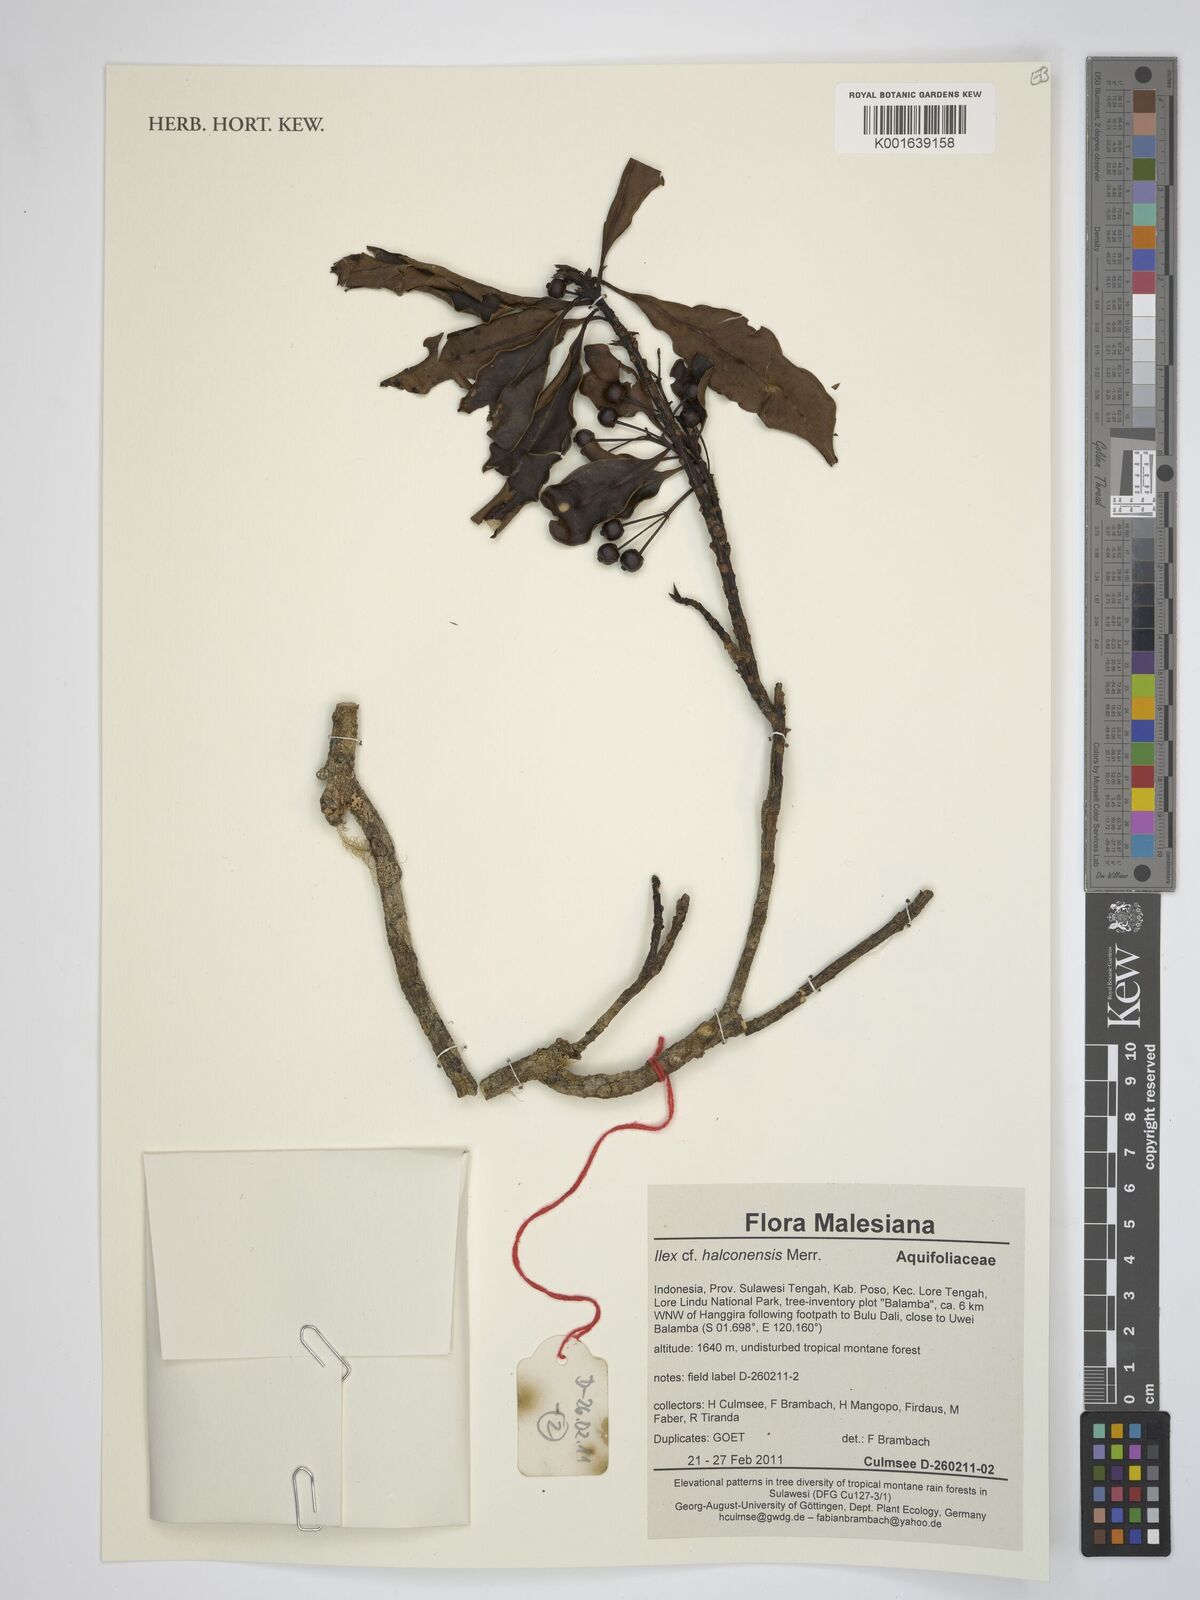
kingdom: Plantae
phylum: Tracheophyta
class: Magnoliopsida
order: Aquifoliales
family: Aquifoliaceae
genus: Ilex
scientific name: Ilex malaccensis
